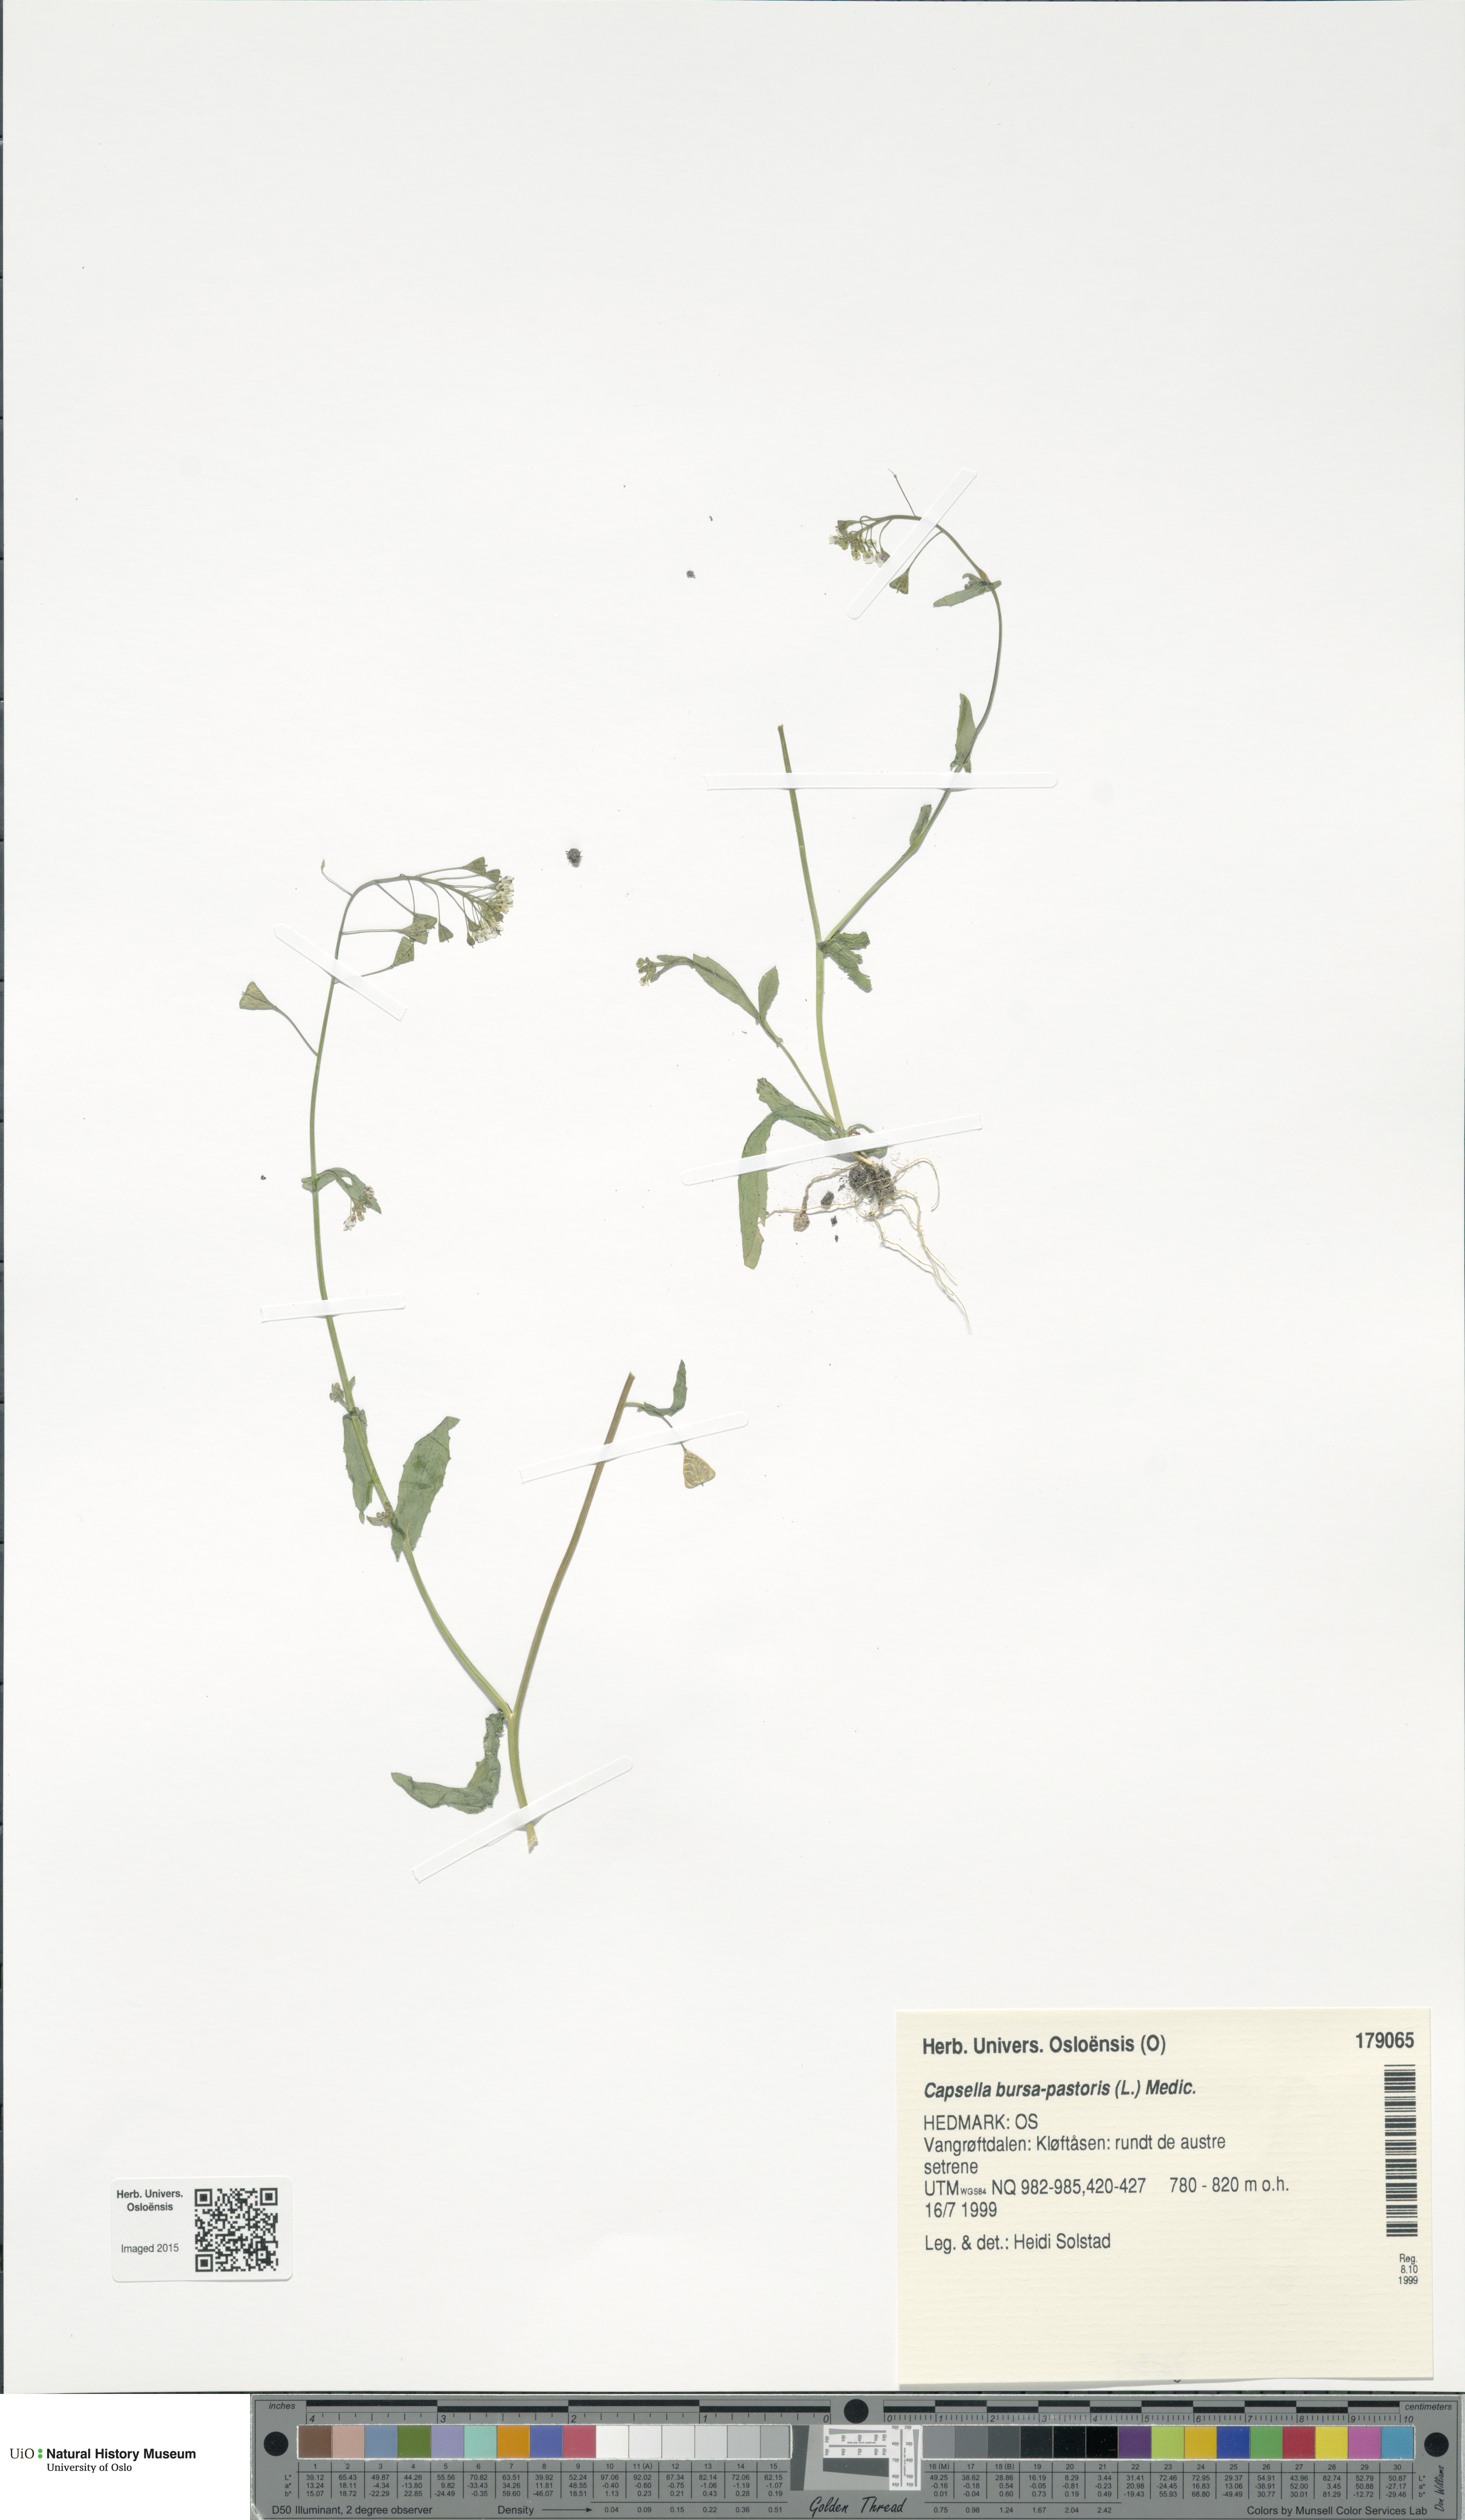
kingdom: Plantae
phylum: Tracheophyta
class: Magnoliopsida
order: Brassicales
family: Brassicaceae
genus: Capsella
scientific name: Capsella bursa-pastoris
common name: Shepherd's purse
